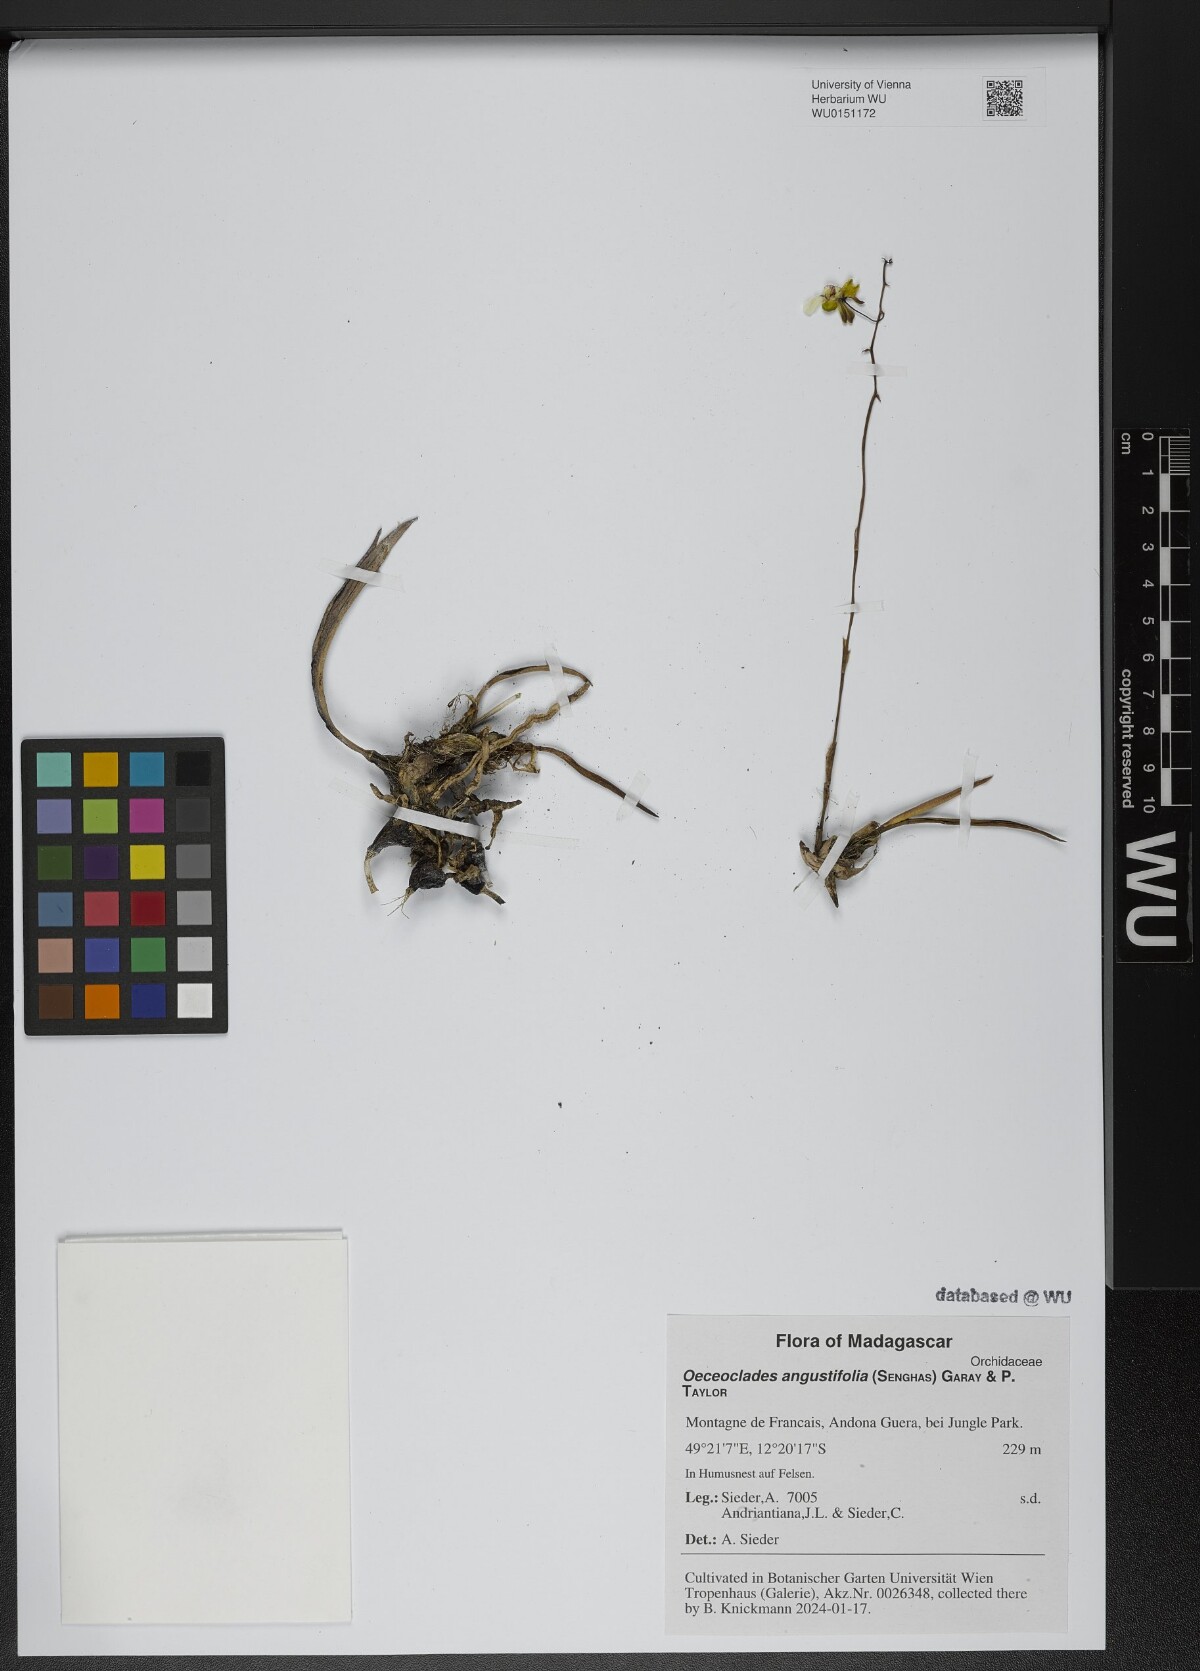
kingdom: Plantae
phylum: Tracheophyta
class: Liliopsida
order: Asparagales
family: Orchidaceae
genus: Eulophia
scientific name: Eulophia analavelensis
